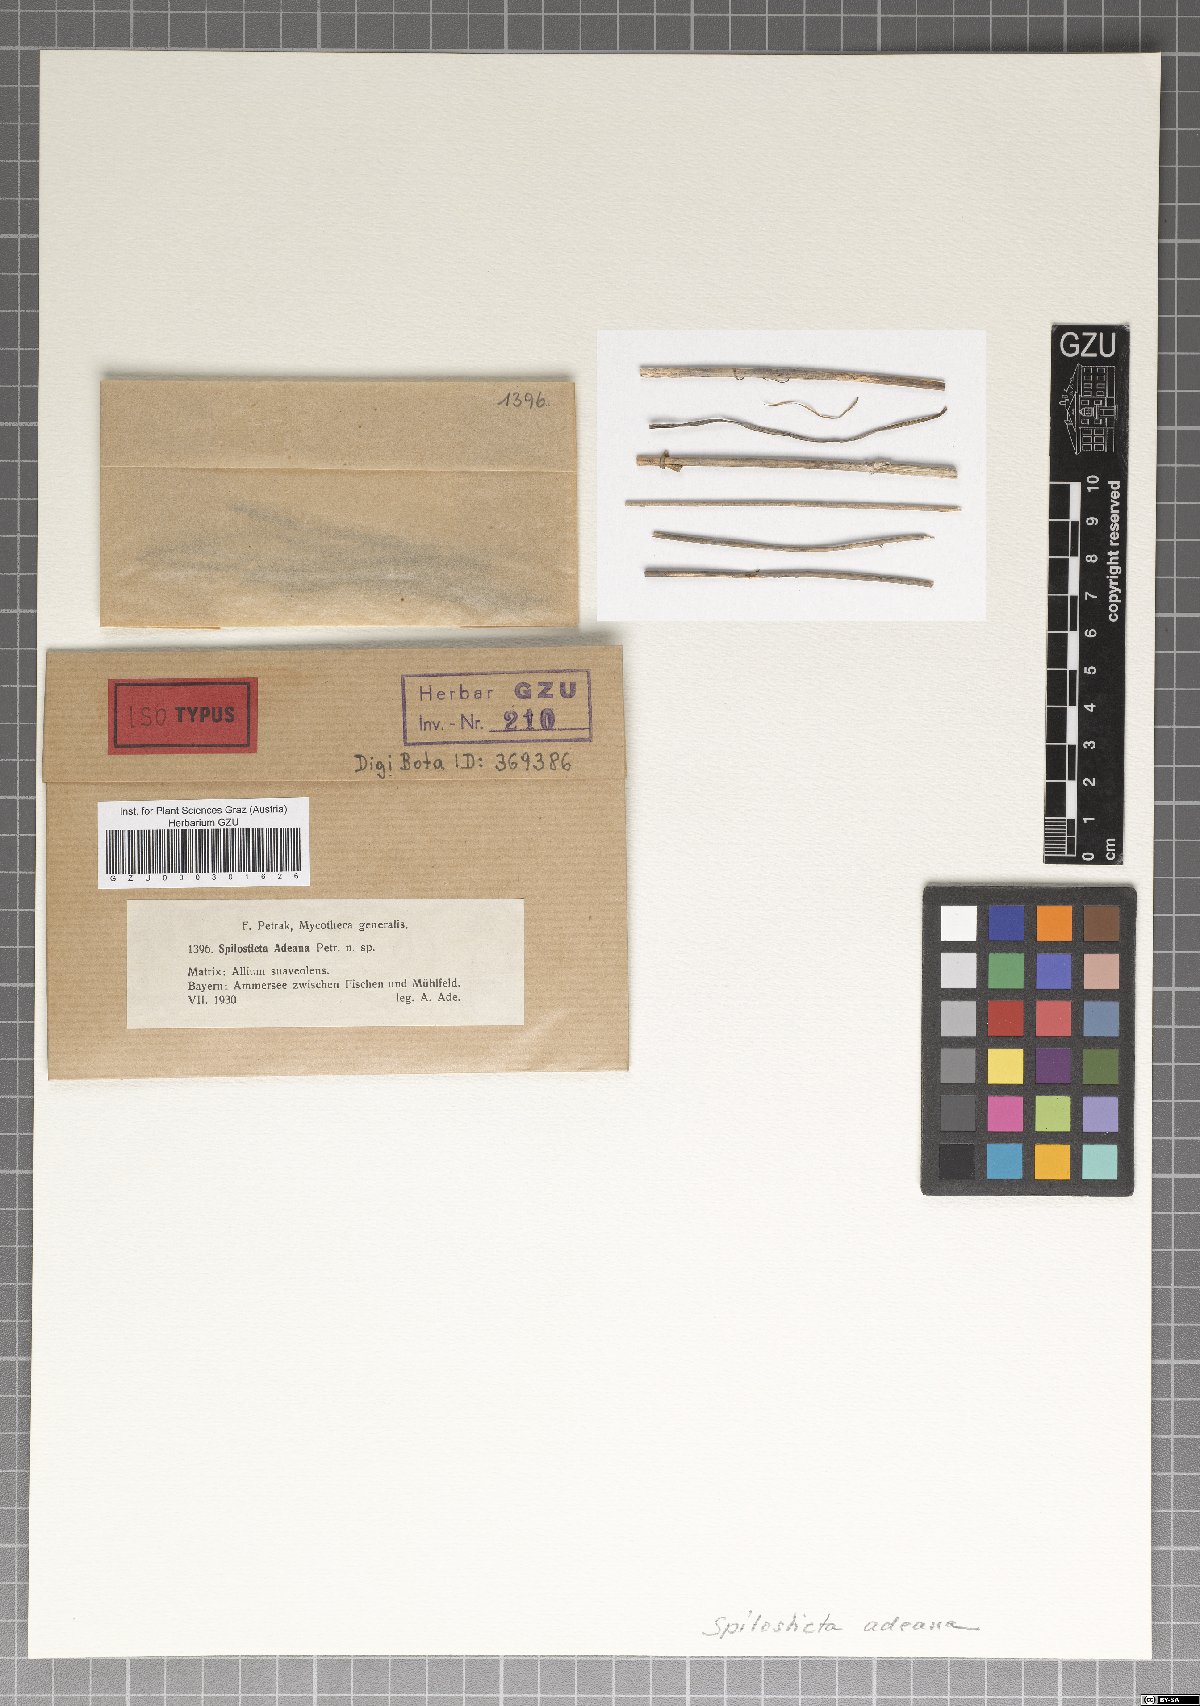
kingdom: Fungi
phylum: Ascomycota
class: Dothideomycetes
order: Venturiales
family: Venturiaceae
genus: Spilosticta
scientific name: Spilosticta adeana
